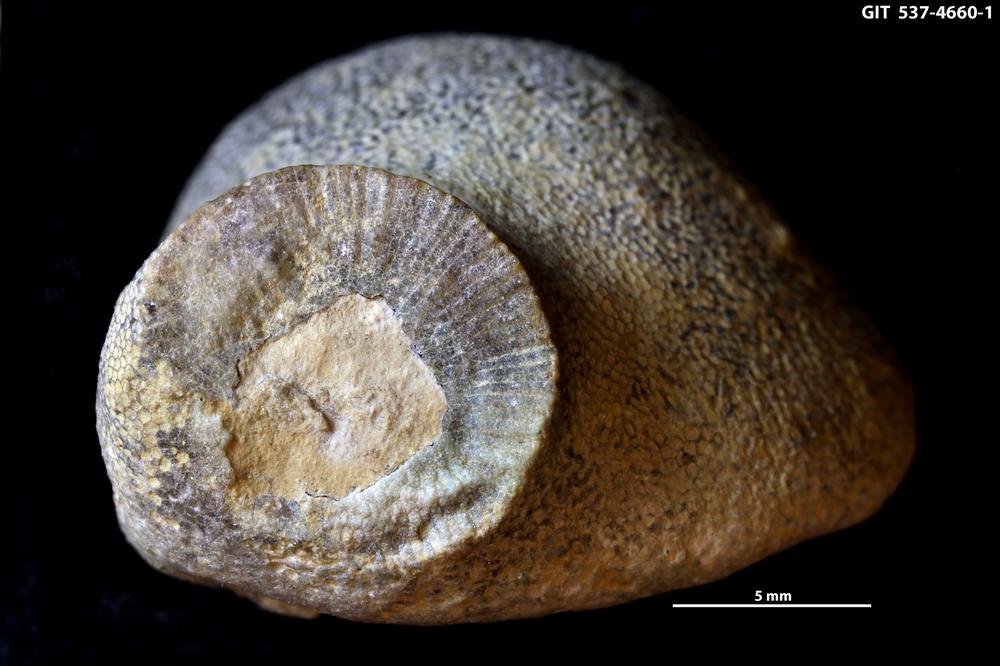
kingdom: Animalia
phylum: Cnidaria
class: Scyphozoa
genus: Climacoconus
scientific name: Climacoconus
